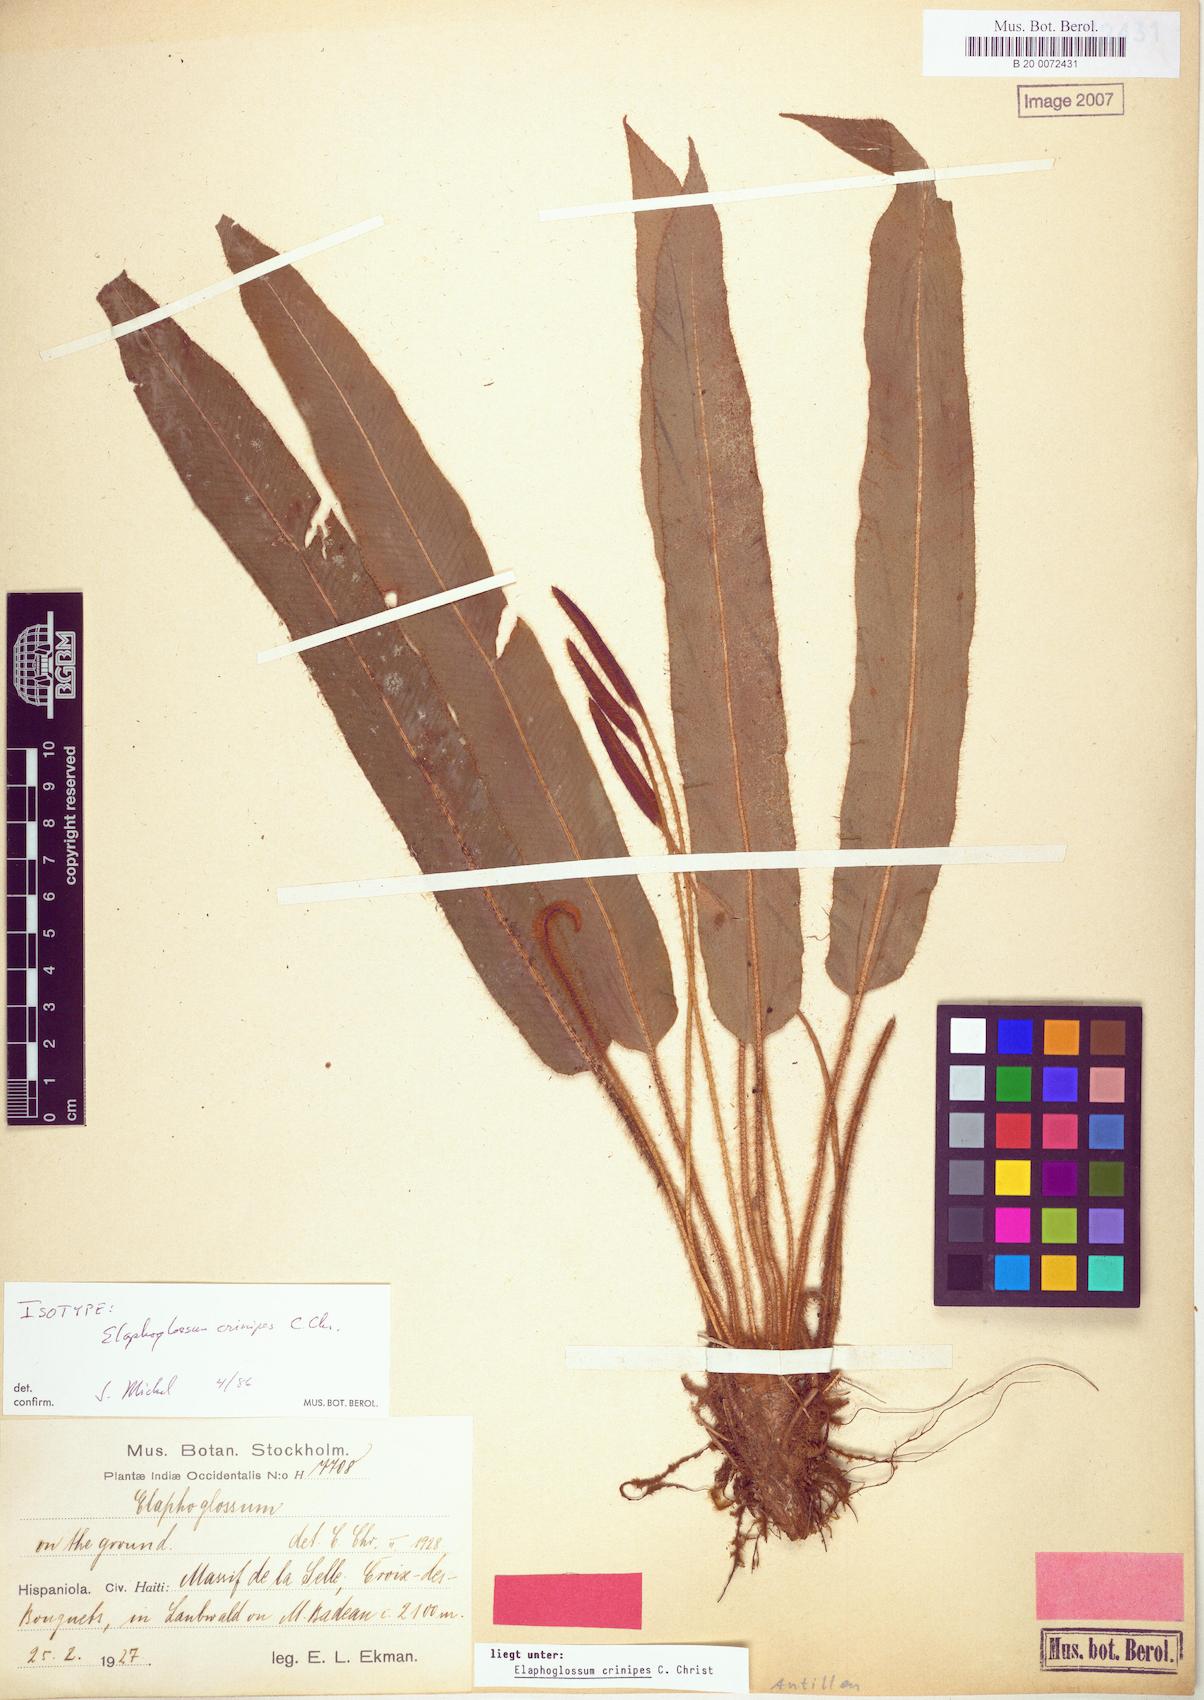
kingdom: Plantae
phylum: Tracheophyta
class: Polypodiopsida
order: Polypodiales
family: Dryopteridaceae
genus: Elaphoglossum
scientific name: Elaphoglossum setigerum
